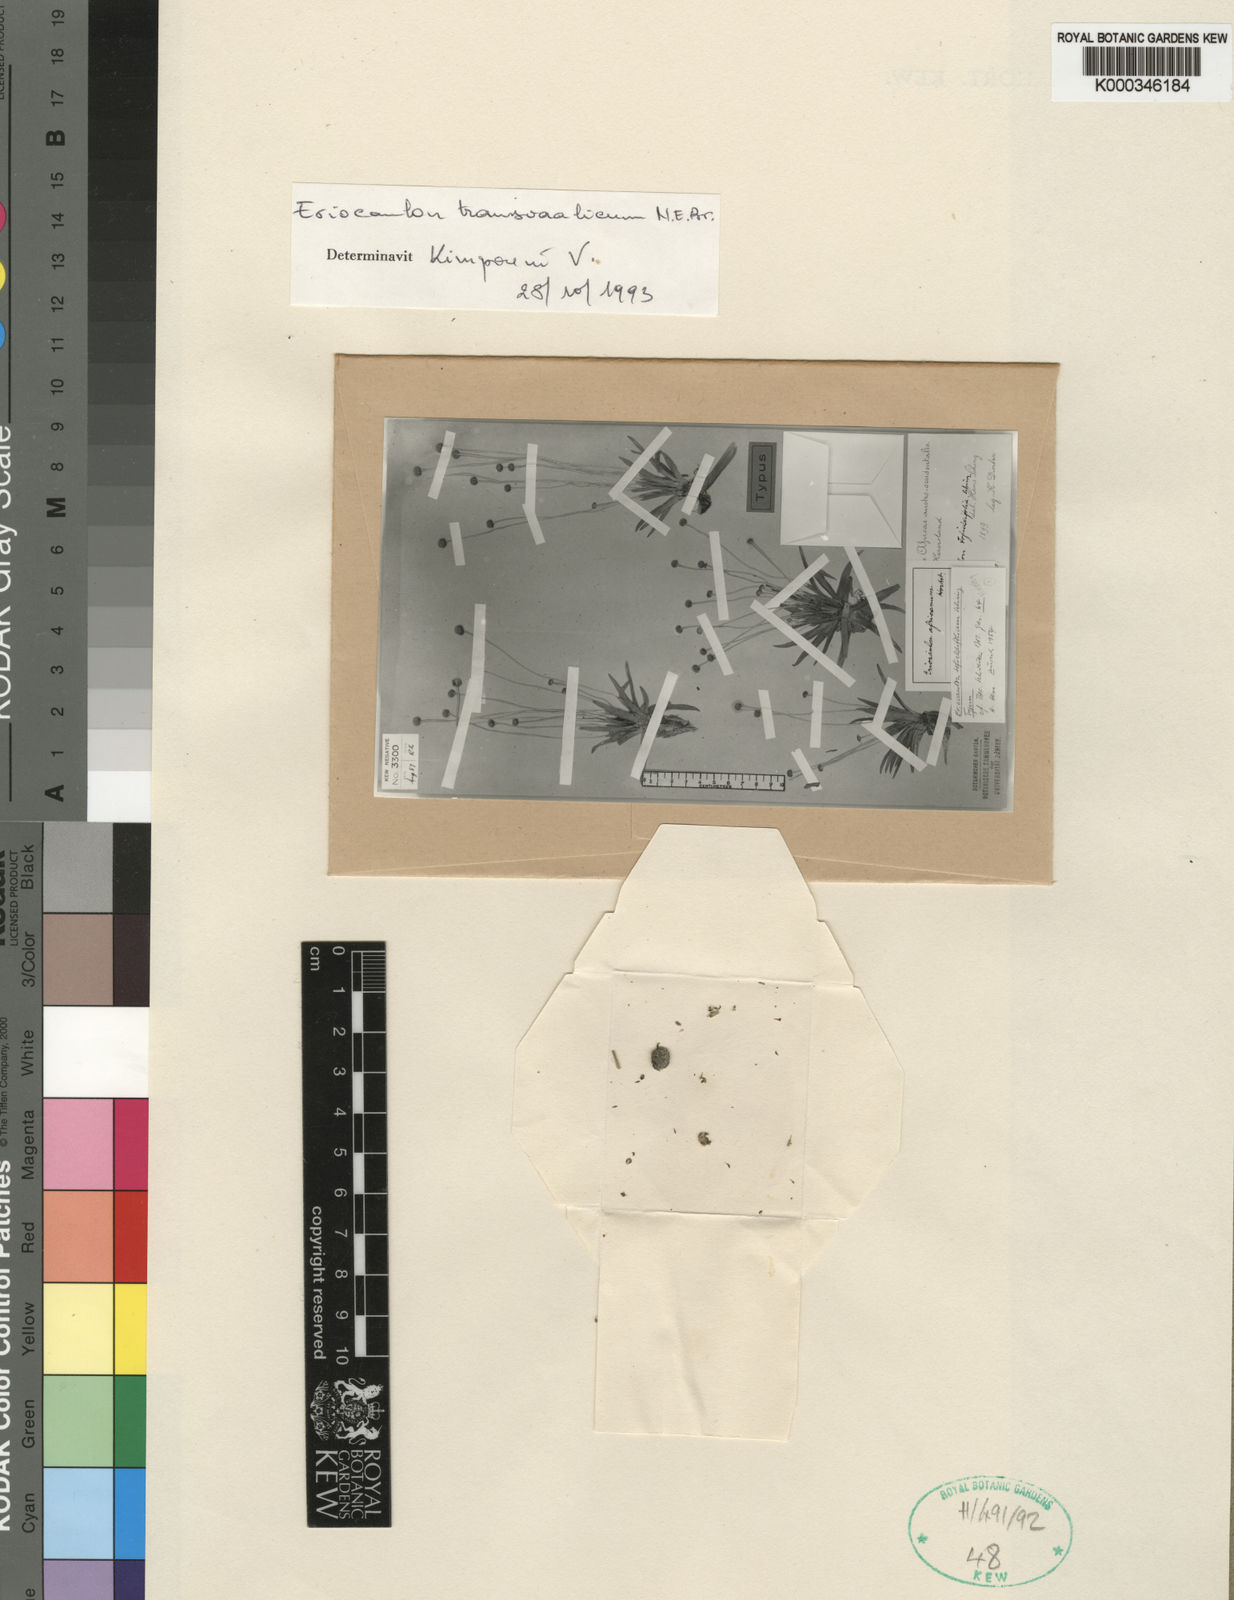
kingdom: Plantae
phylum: Tracheophyta
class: Liliopsida
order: Poales
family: Eriocaulaceae
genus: Eriocaulon
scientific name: Eriocaulon transvaalicum
